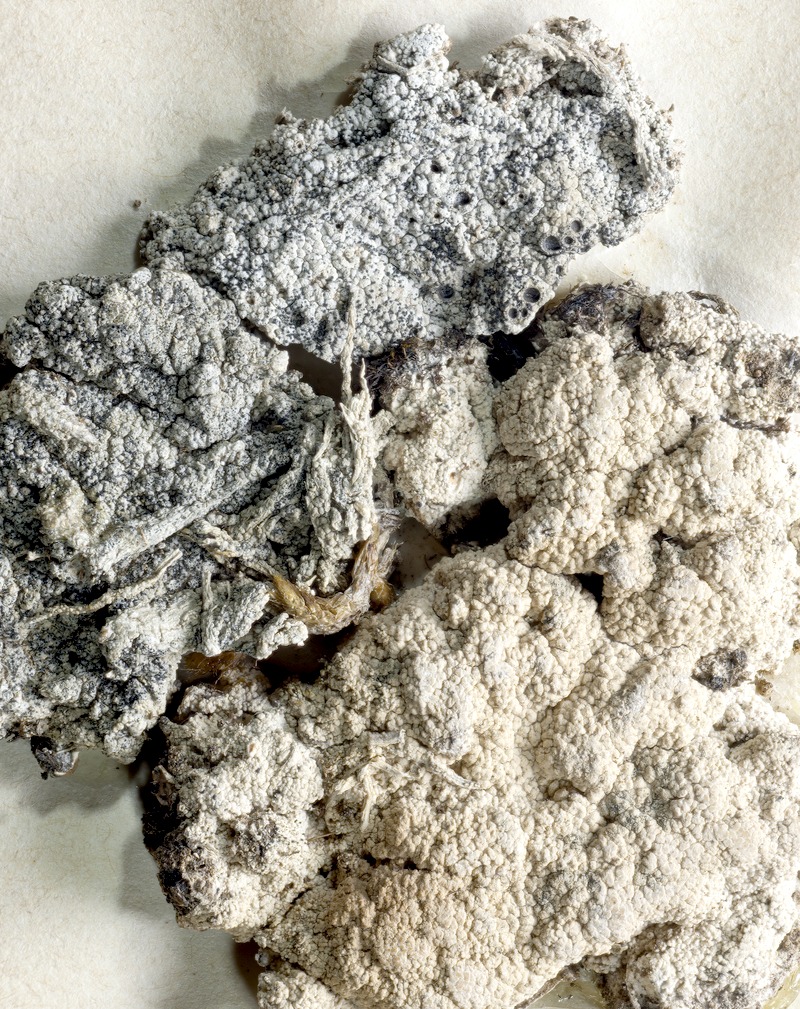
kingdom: Fungi
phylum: Ascomycota
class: Lecanoromycetes
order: Ostropales
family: Graphidaceae
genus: Diploschistes
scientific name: Diploschistes scruposus
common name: Crater lichen
